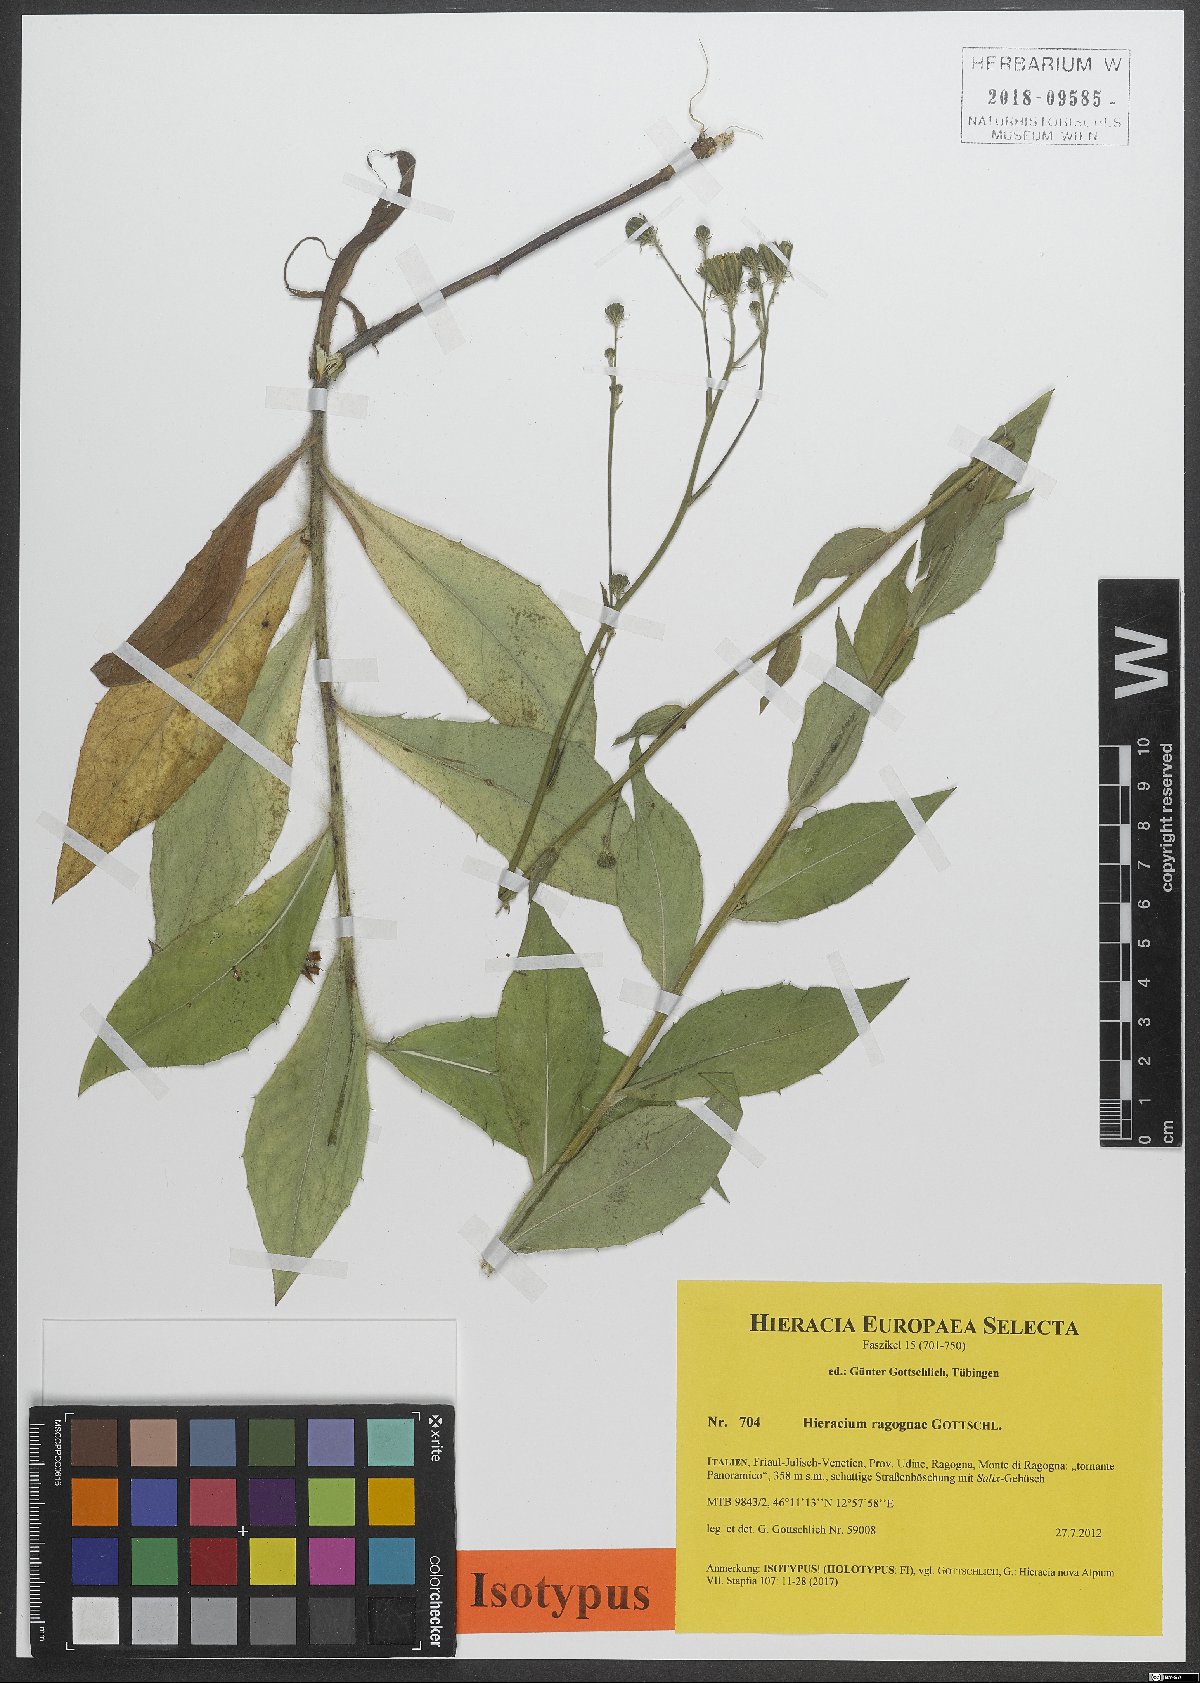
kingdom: Plantae
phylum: Tracheophyta
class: Magnoliopsida
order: Asterales
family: Asteraceae
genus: Hieracium
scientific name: Hieracium ragognae
